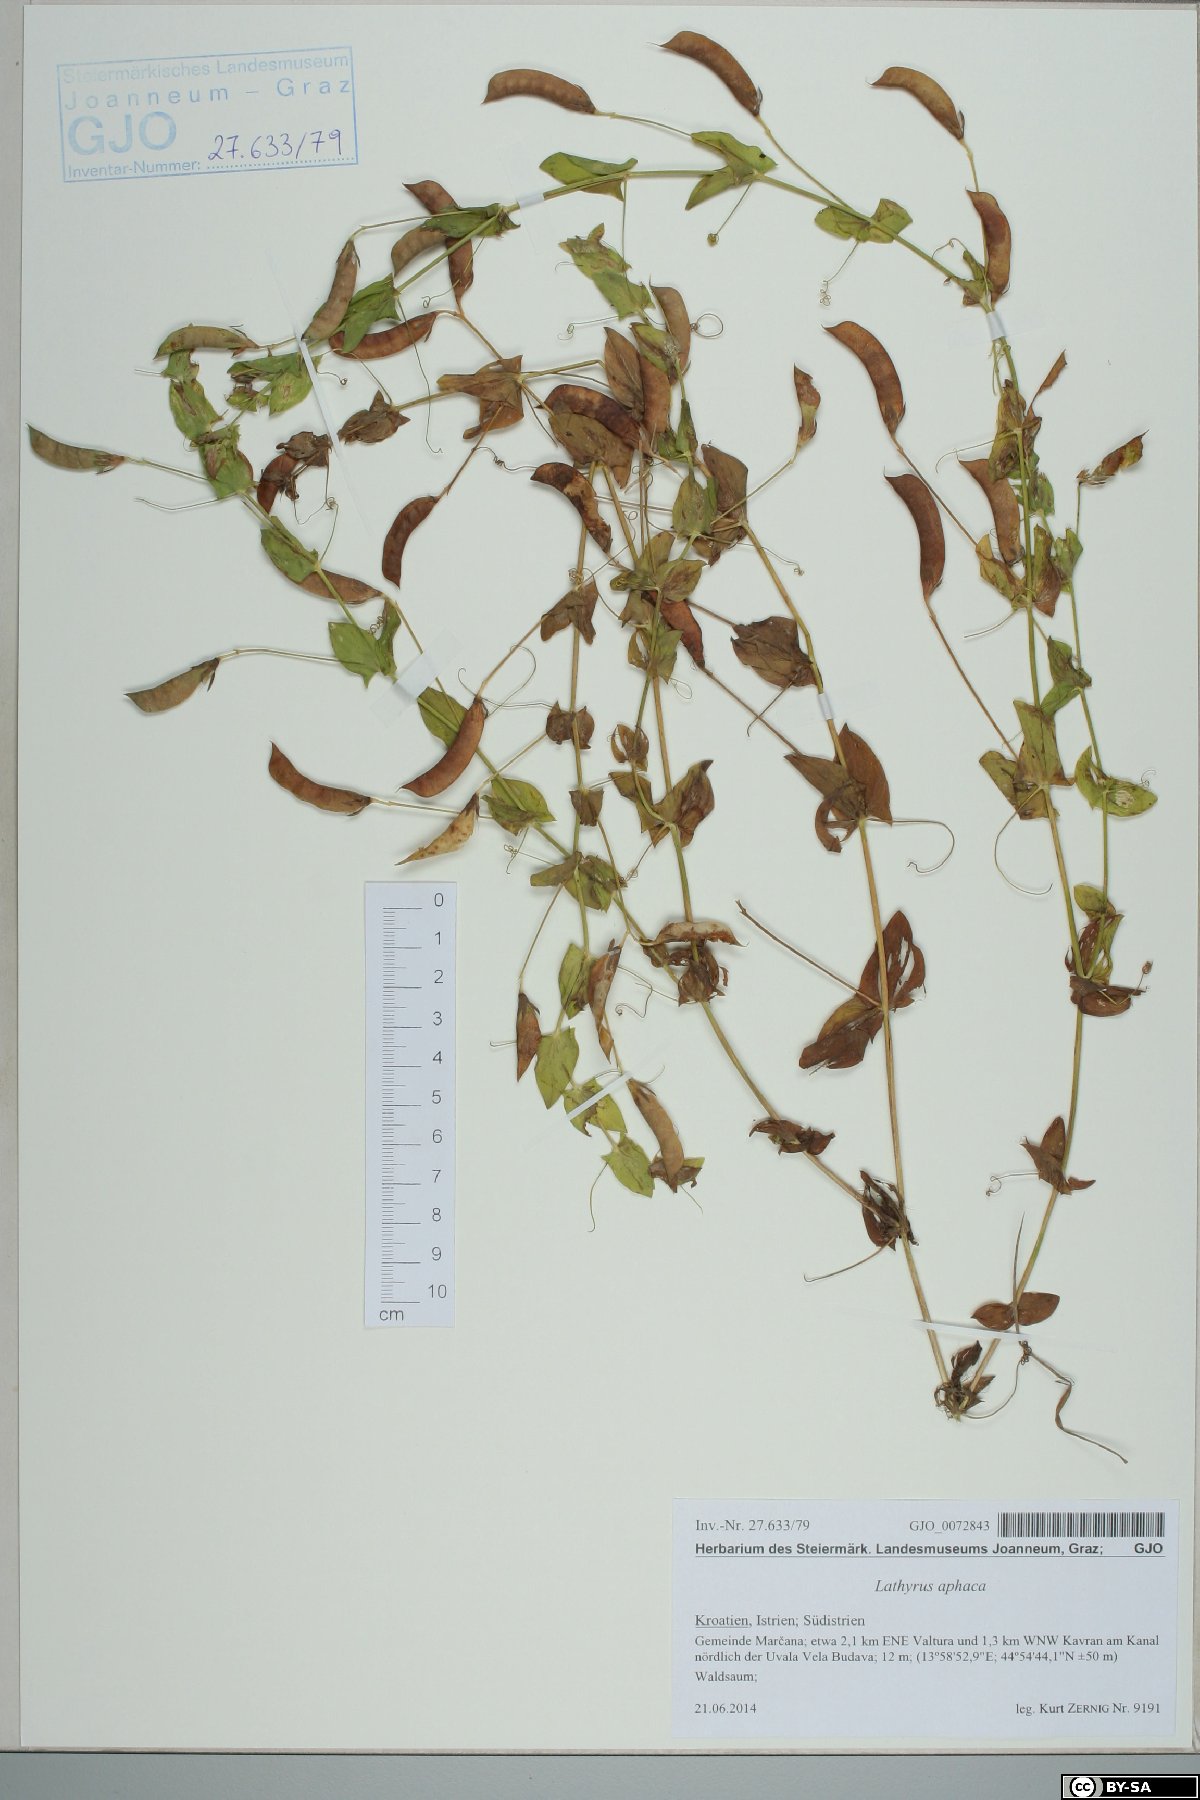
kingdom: Plantae
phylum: Tracheophyta
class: Magnoliopsida
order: Fabales
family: Fabaceae
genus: Lathyrus
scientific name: Lathyrus aphaca
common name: Yellow vetchling
